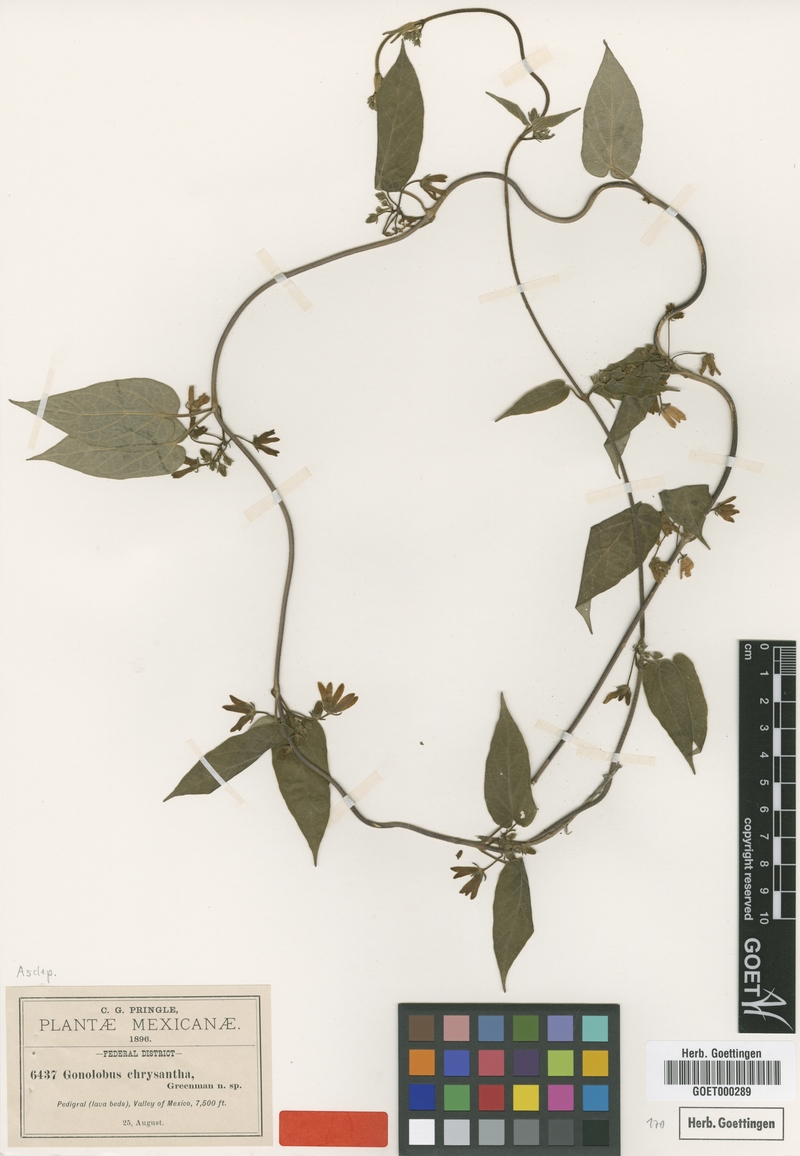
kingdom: Plantae
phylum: Tracheophyta
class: Magnoliopsida
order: Gentianales
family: Apocynaceae
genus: Matelea
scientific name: Matelea chrysantha
